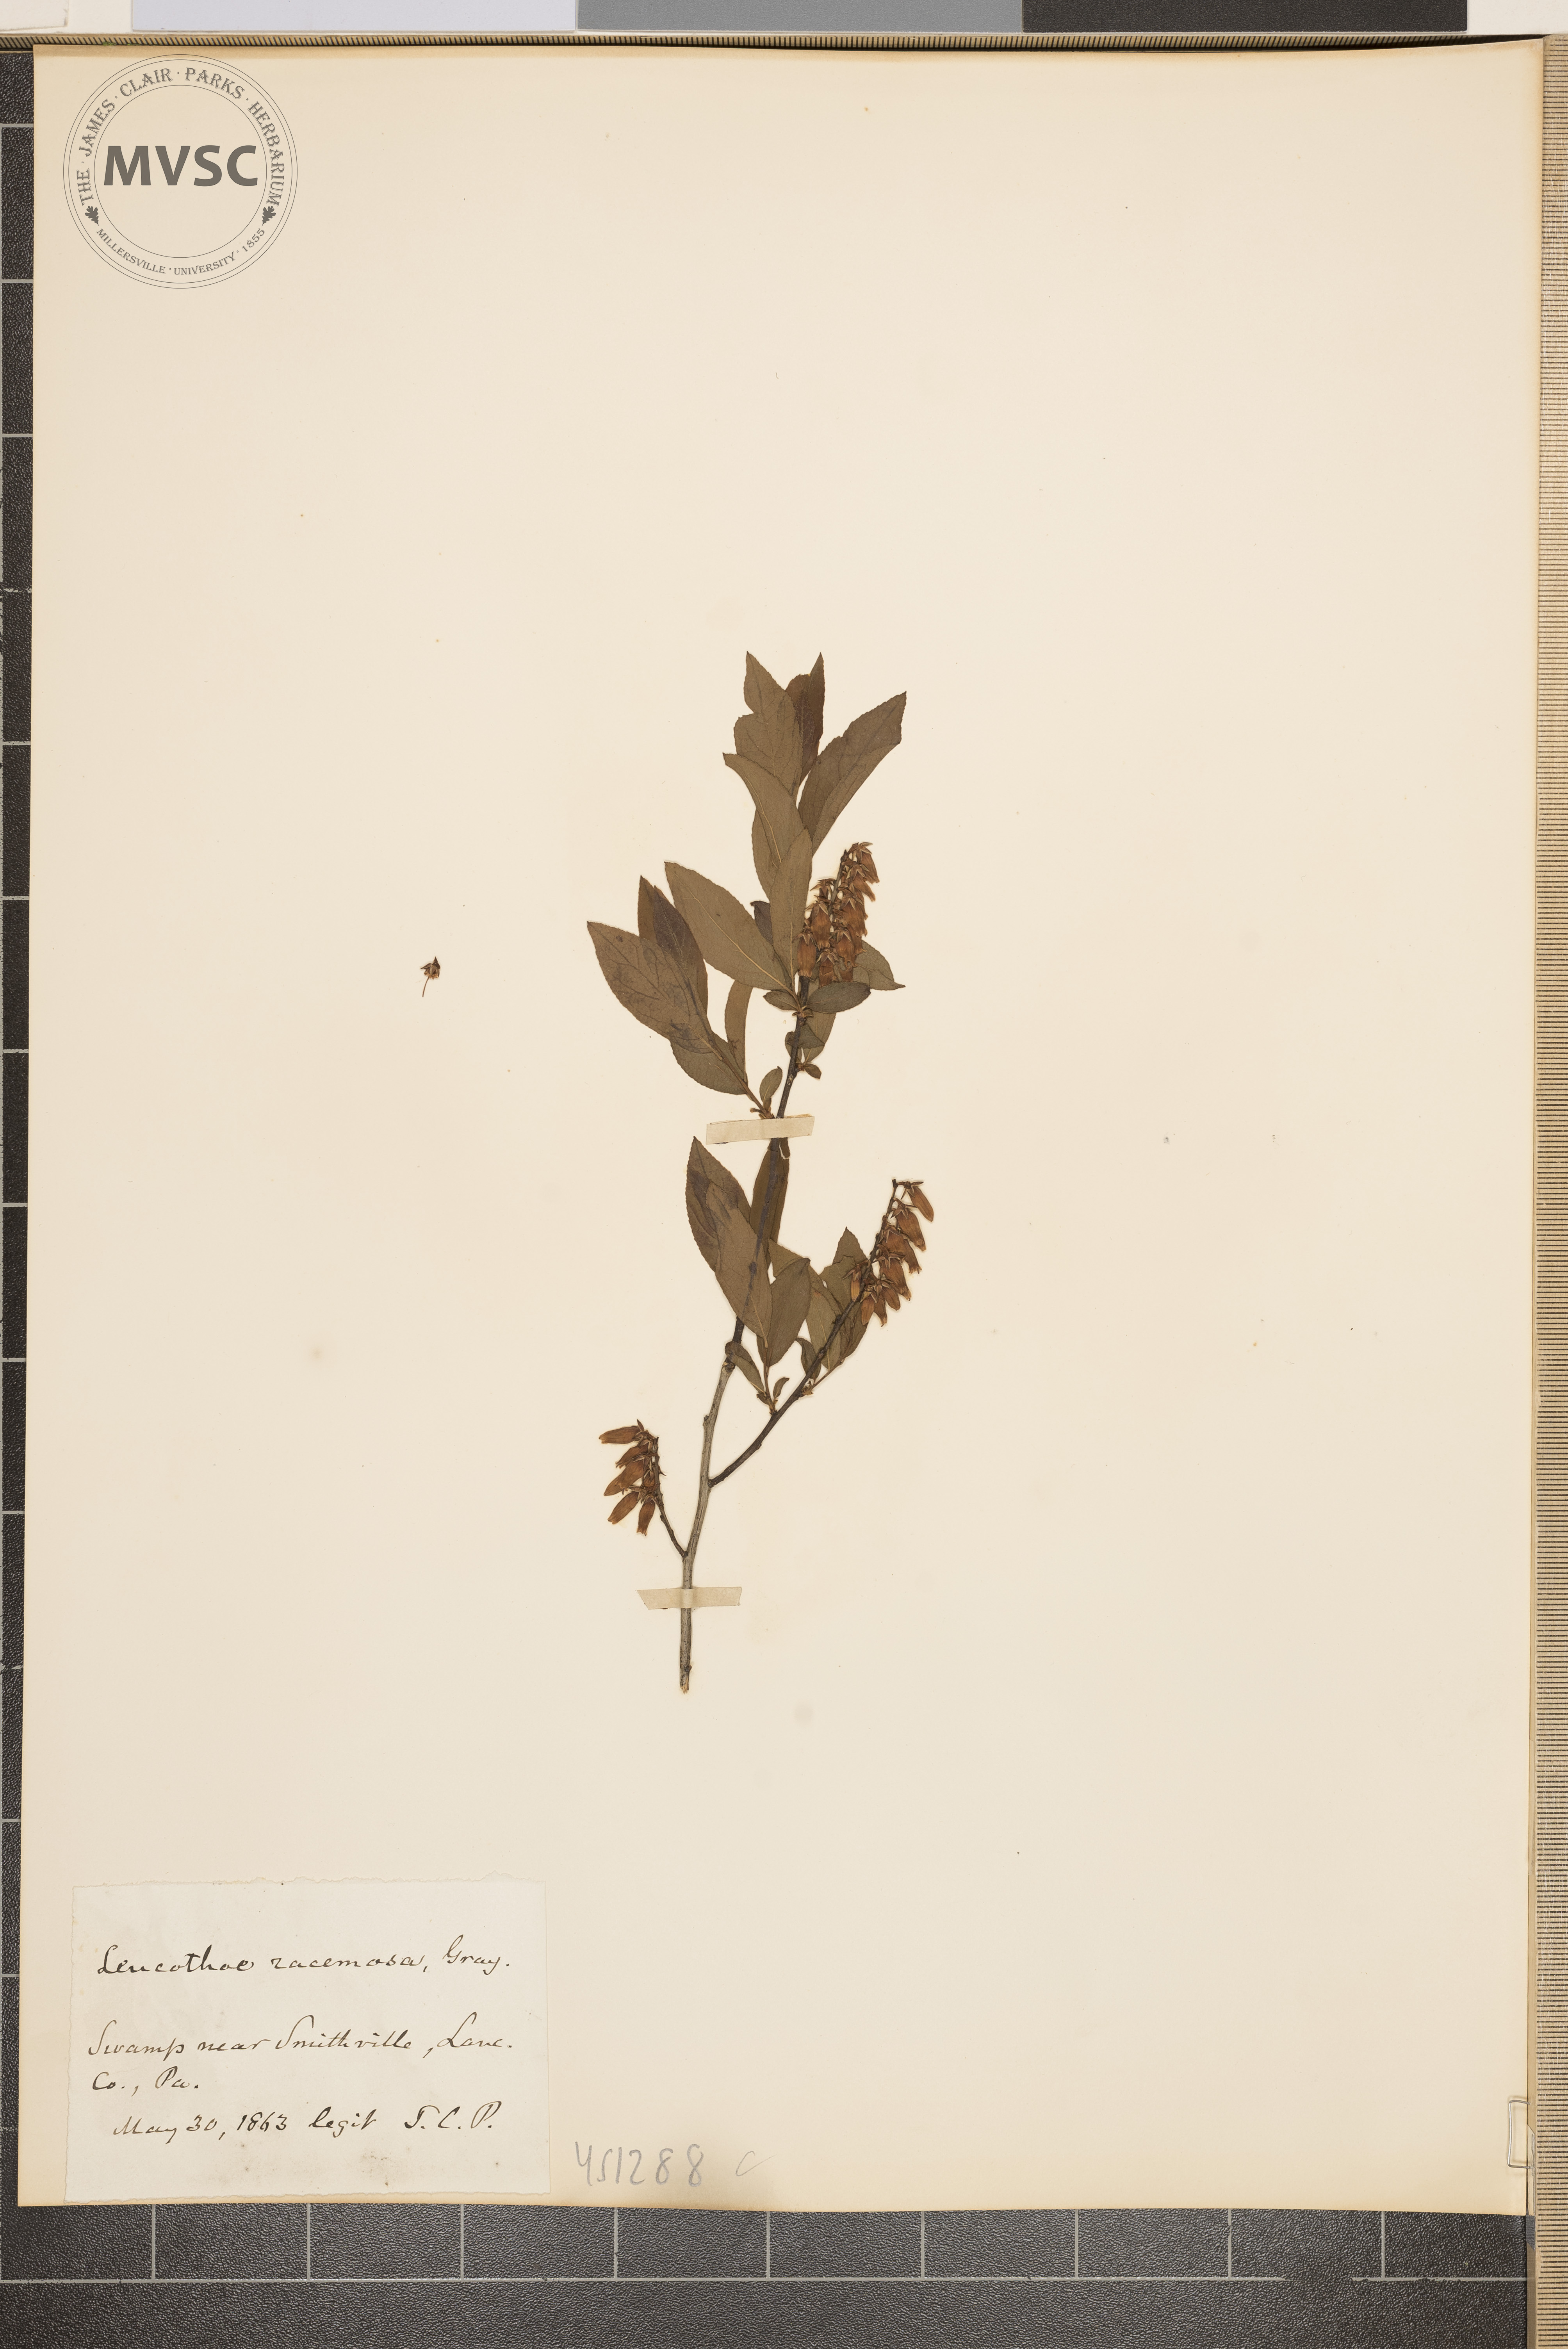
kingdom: Plantae
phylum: Tracheophyta
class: Magnoliopsida
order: Ericales
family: Ericaceae
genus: Eubotrys
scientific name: Eubotrys racemosa
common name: Fetterbush
